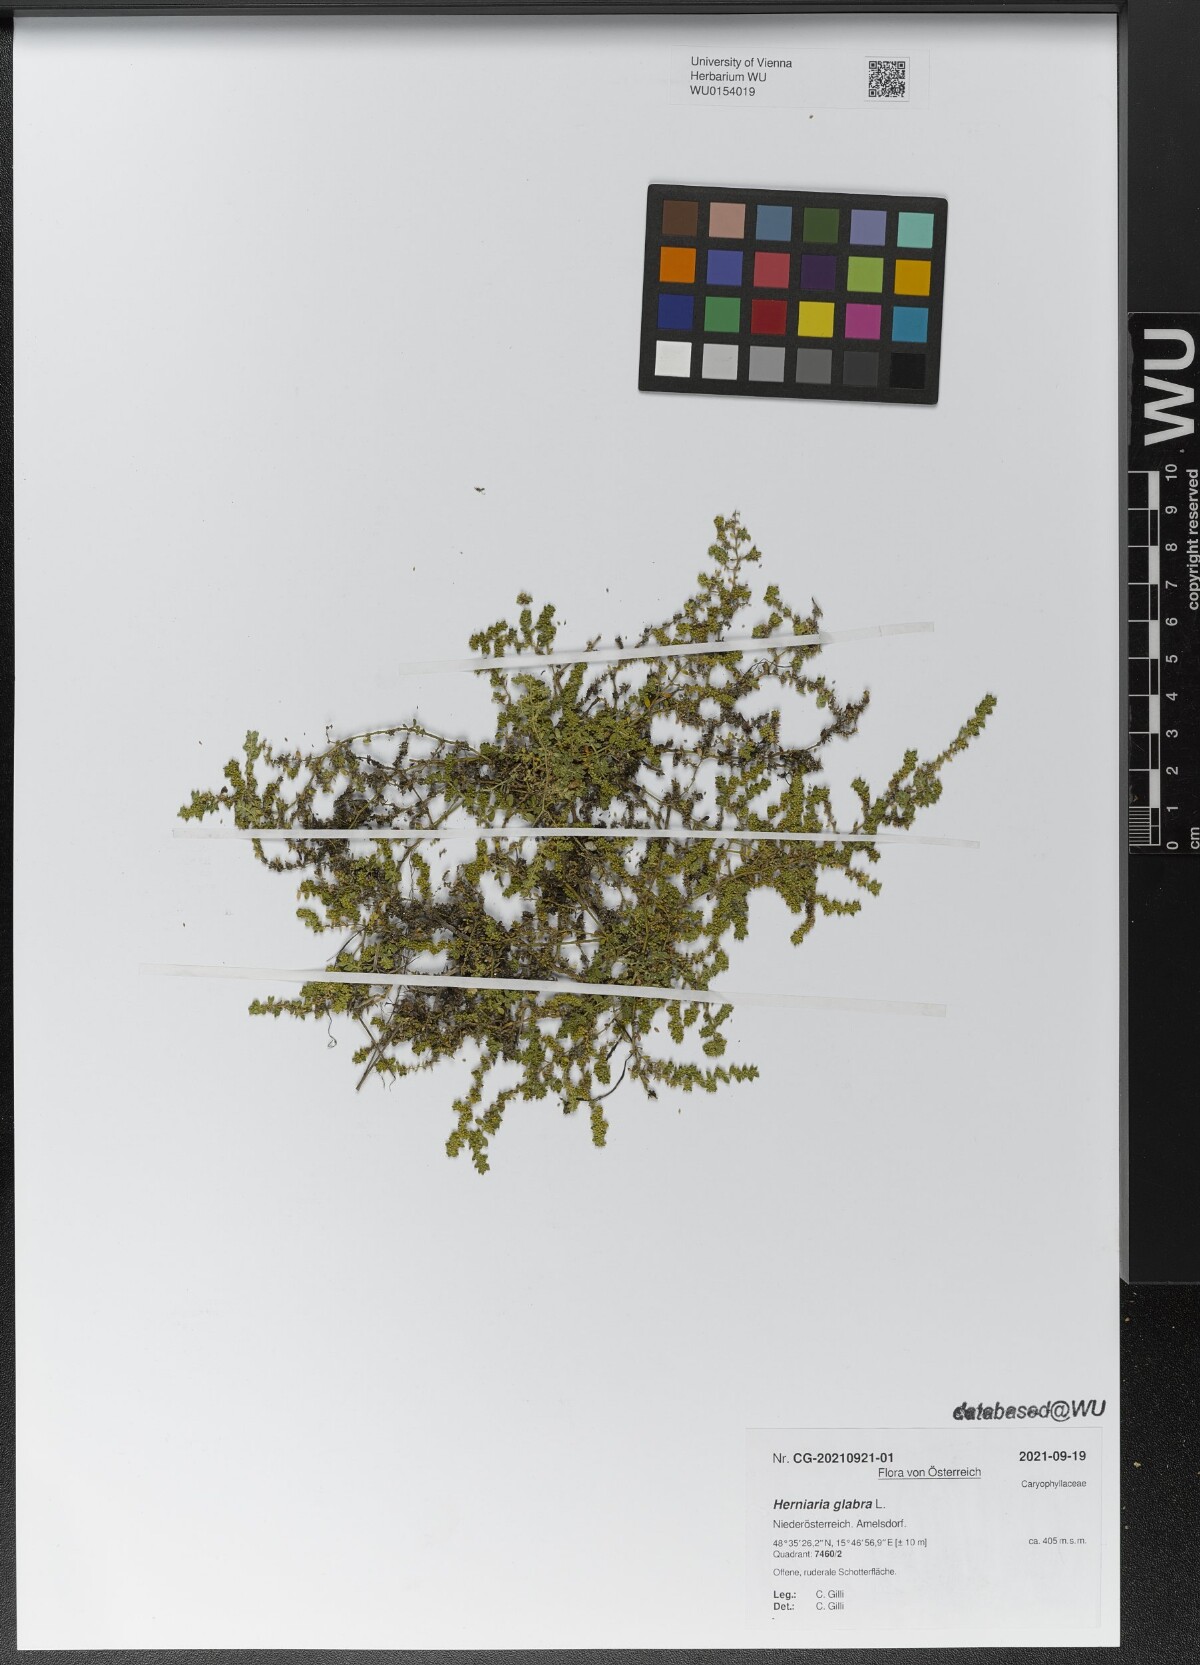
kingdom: Plantae
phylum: Tracheophyta
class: Magnoliopsida
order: Caryophyllales
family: Caryophyllaceae
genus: Herniaria
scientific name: Herniaria glabra
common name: Smooth rupturewort
